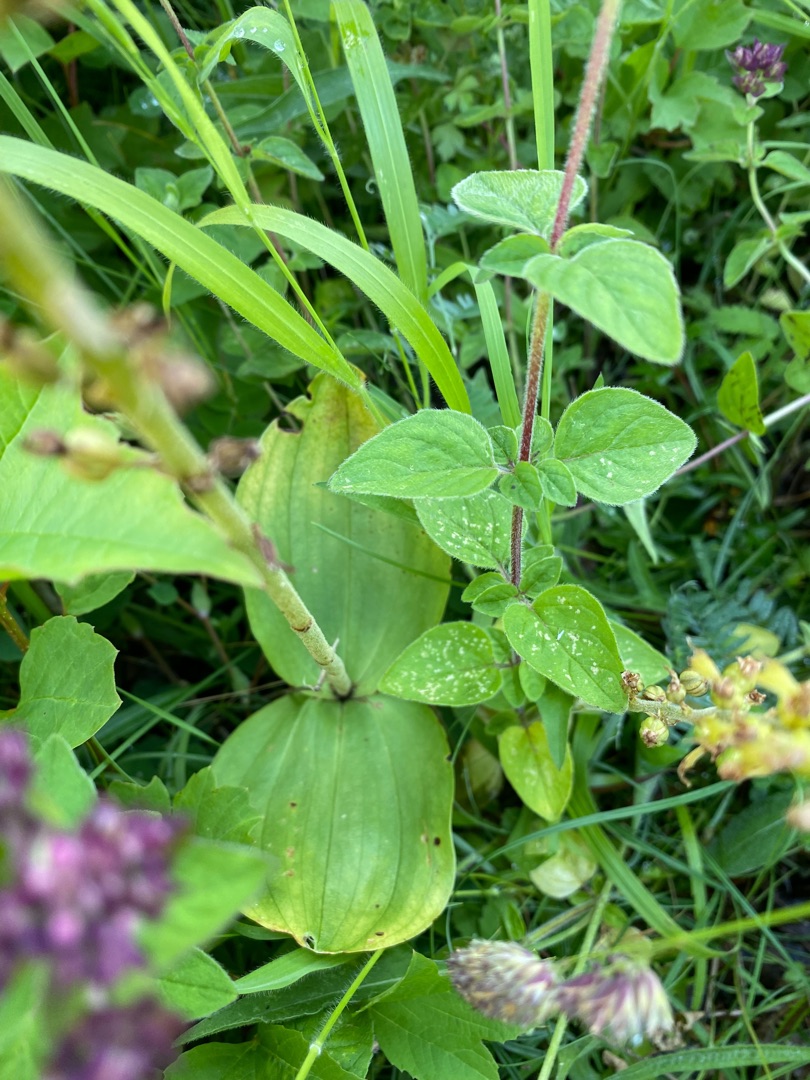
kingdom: Plantae
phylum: Tracheophyta
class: Liliopsida
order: Asparagales
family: Orchidaceae
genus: Neottia
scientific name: Neottia ovata
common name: Ægbladet fliglæbe
